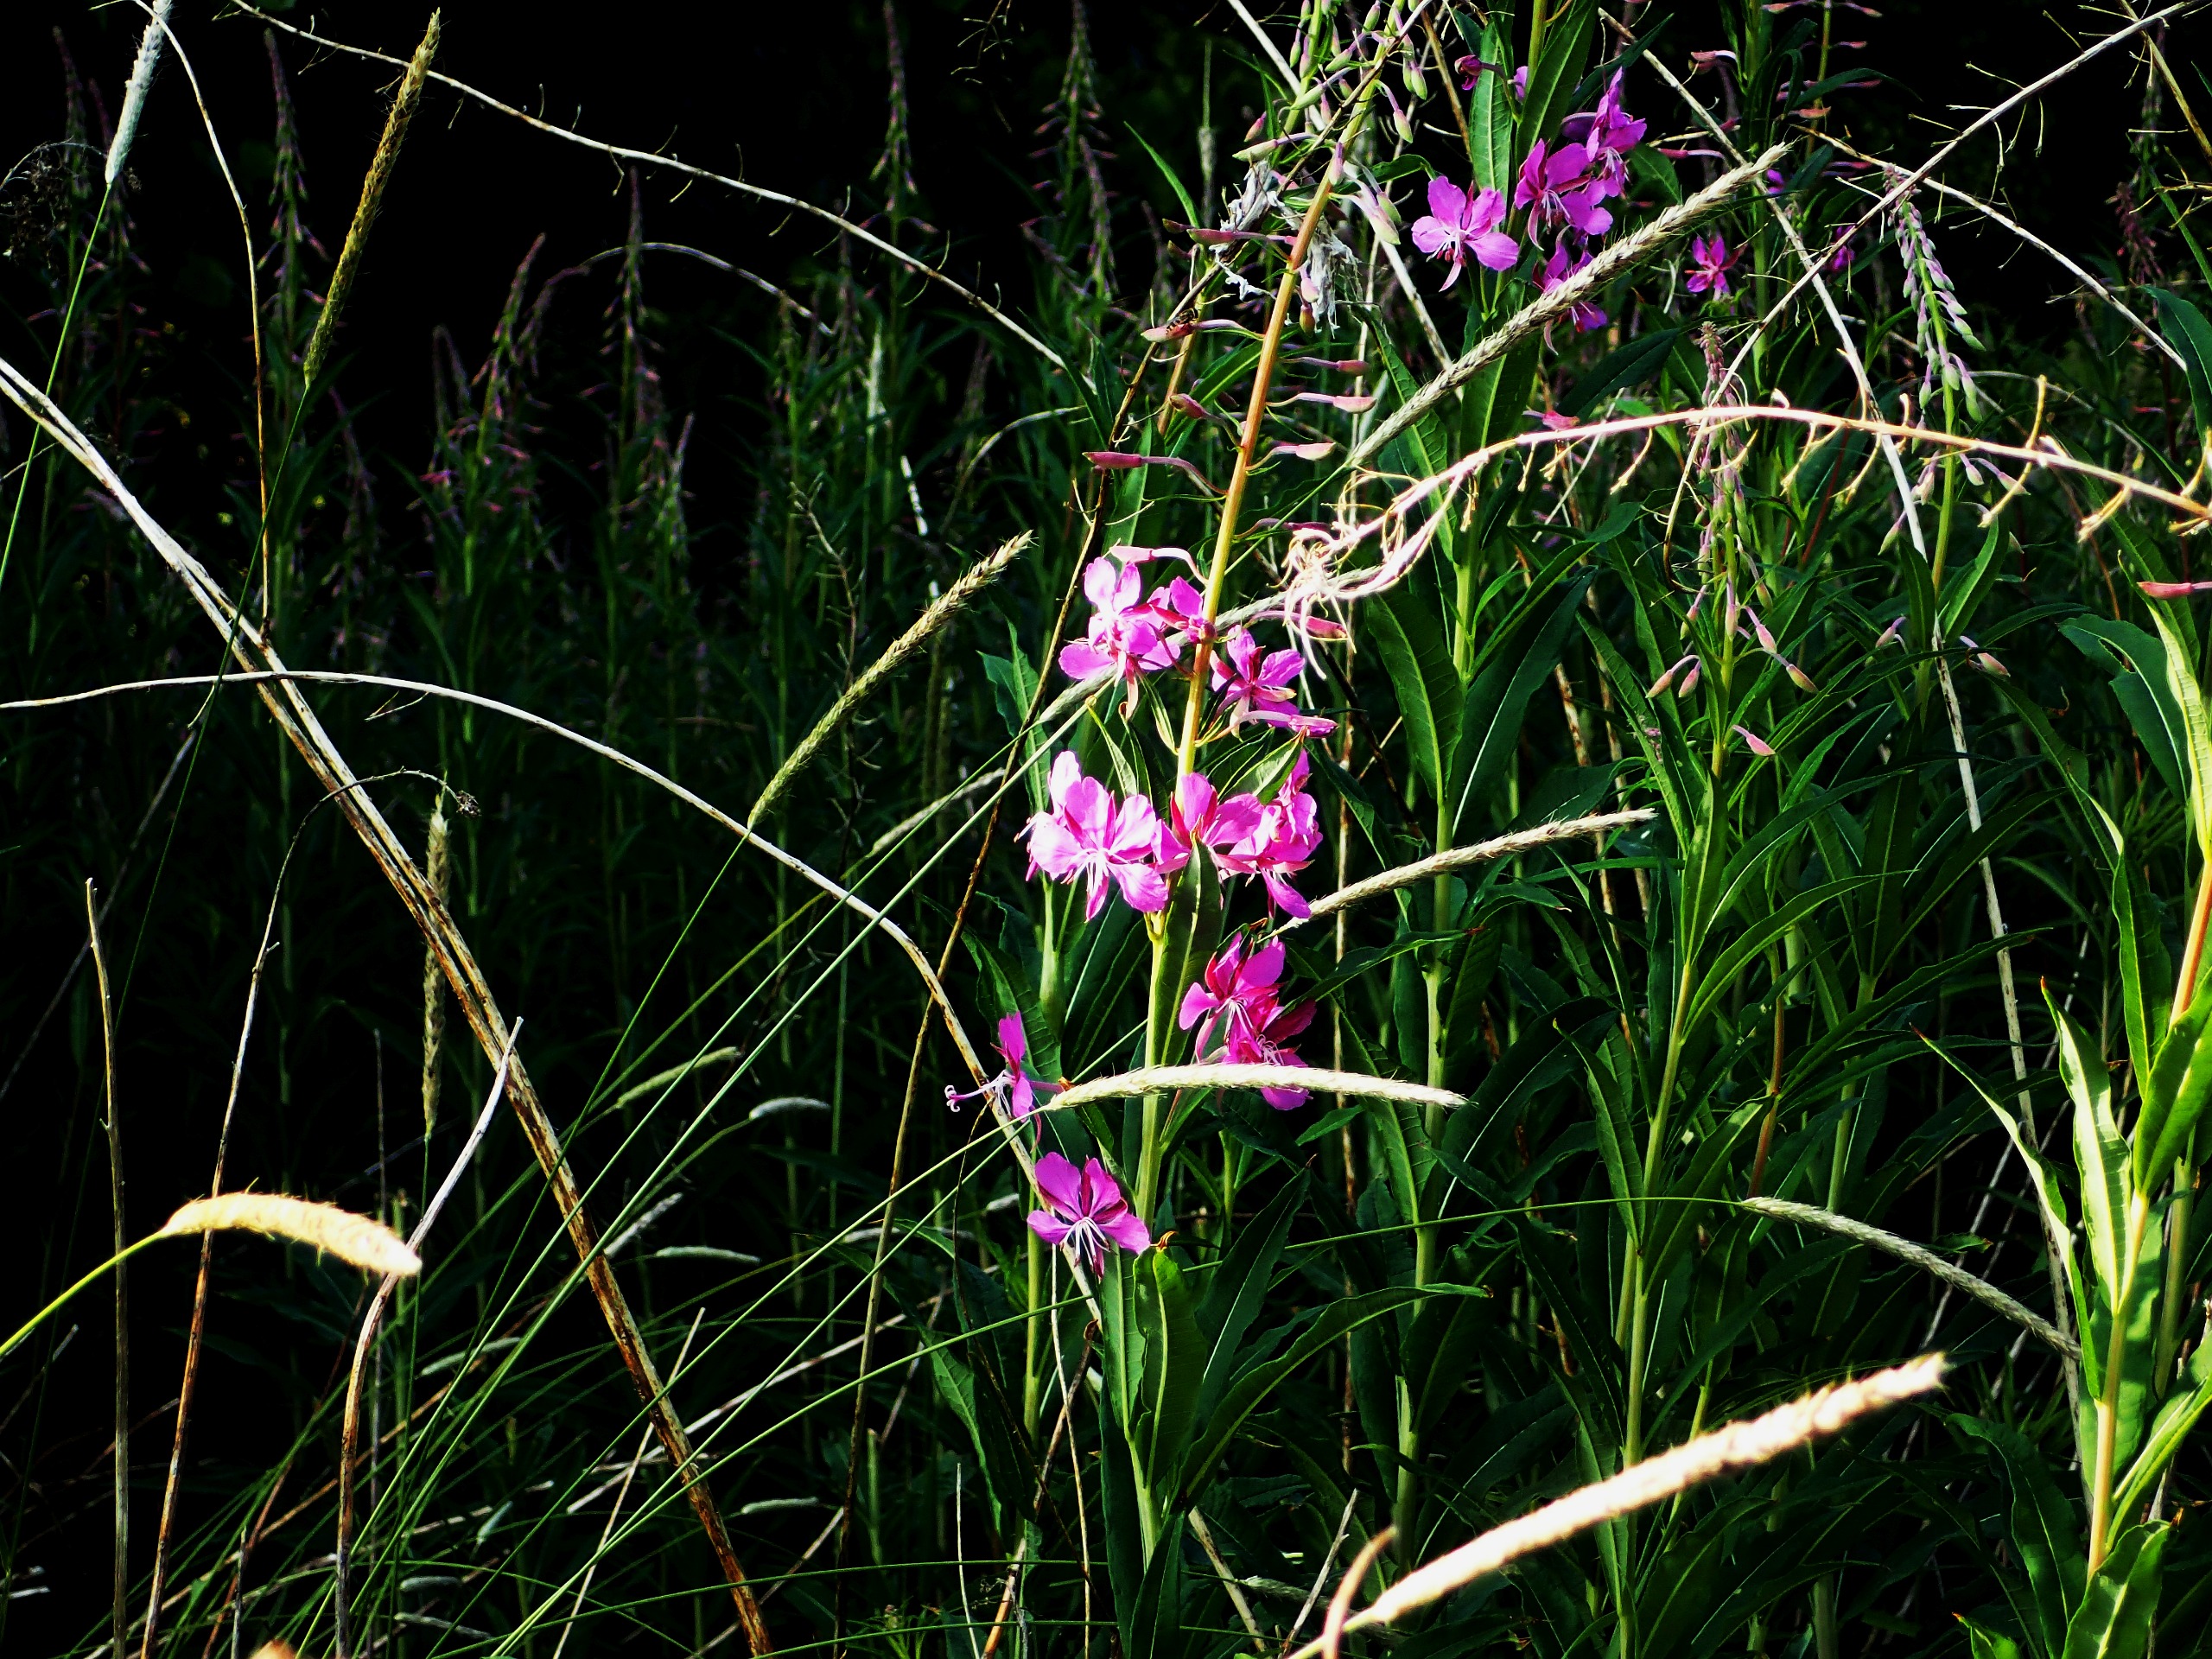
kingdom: Plantae
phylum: Tracheophyta
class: Magnoliopsida
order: Myrtales
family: Onagraceae
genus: Chamaenerion
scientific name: Chamaenerion angustifolium
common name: Gederams
